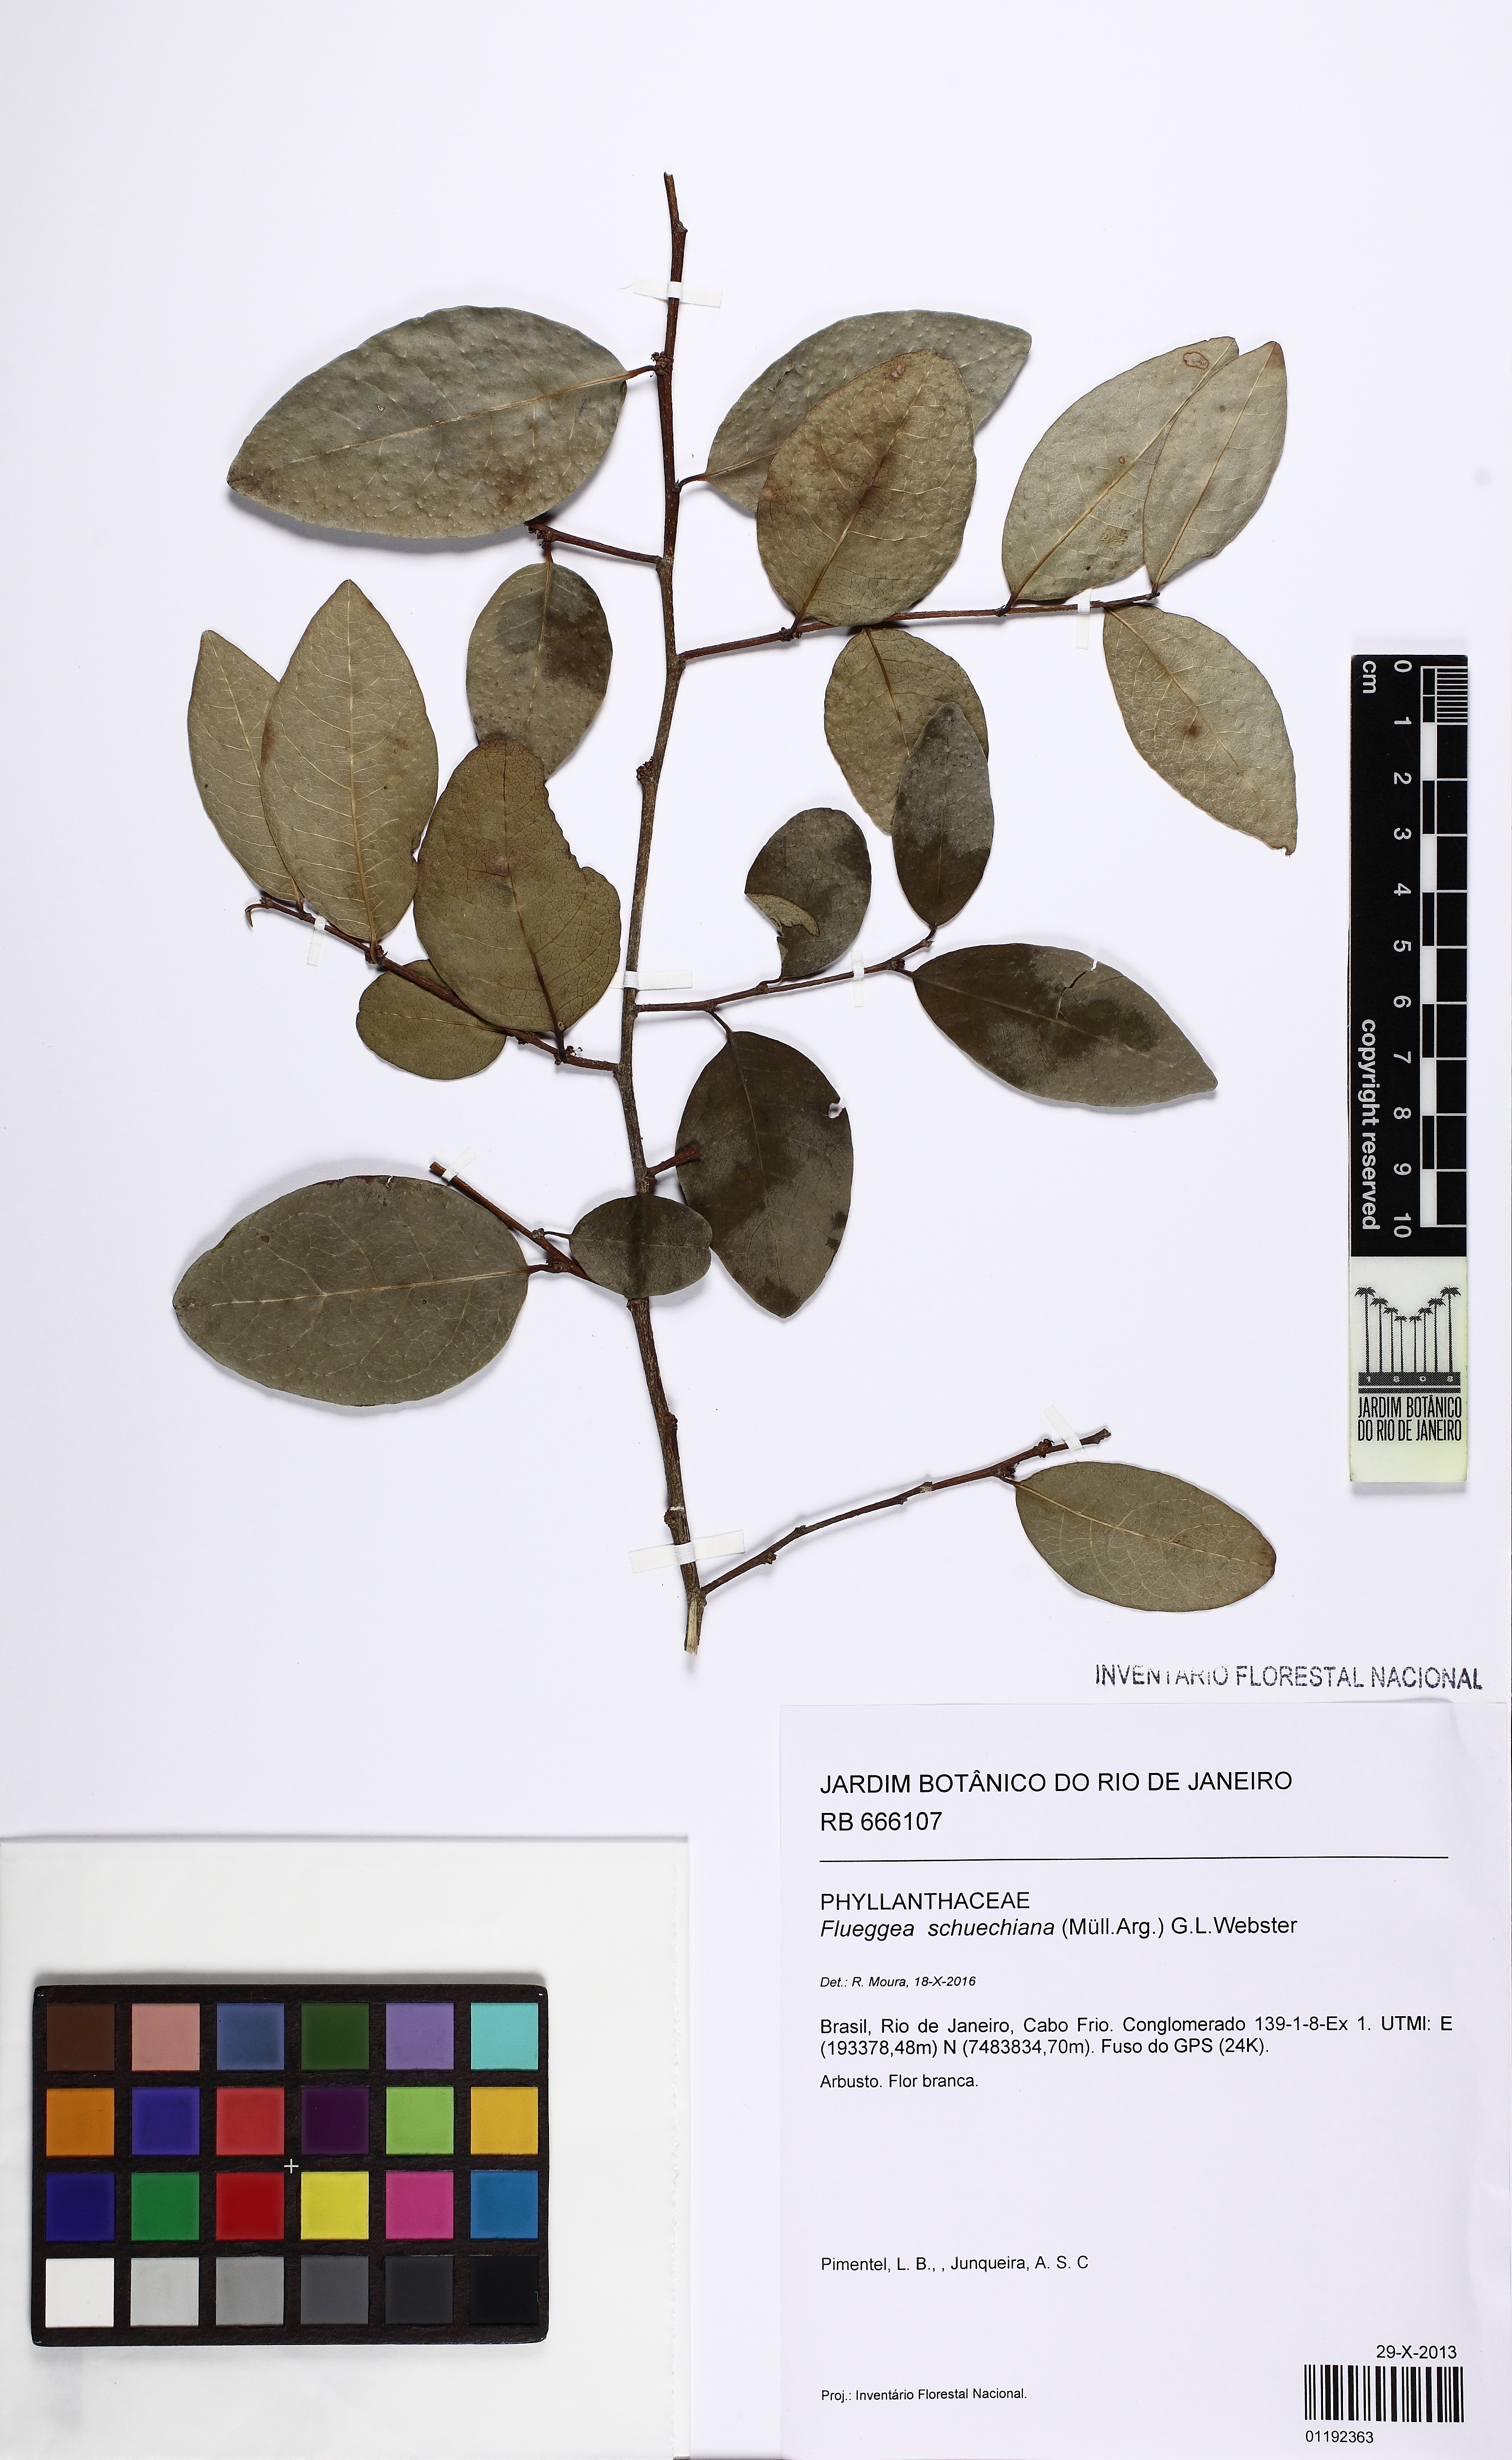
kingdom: Plantae
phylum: Tracheophyta
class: Magnoliopsida
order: Malpighiales
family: Phyllanthaceae
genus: Flueggea
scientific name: Flueggea schuechiana
